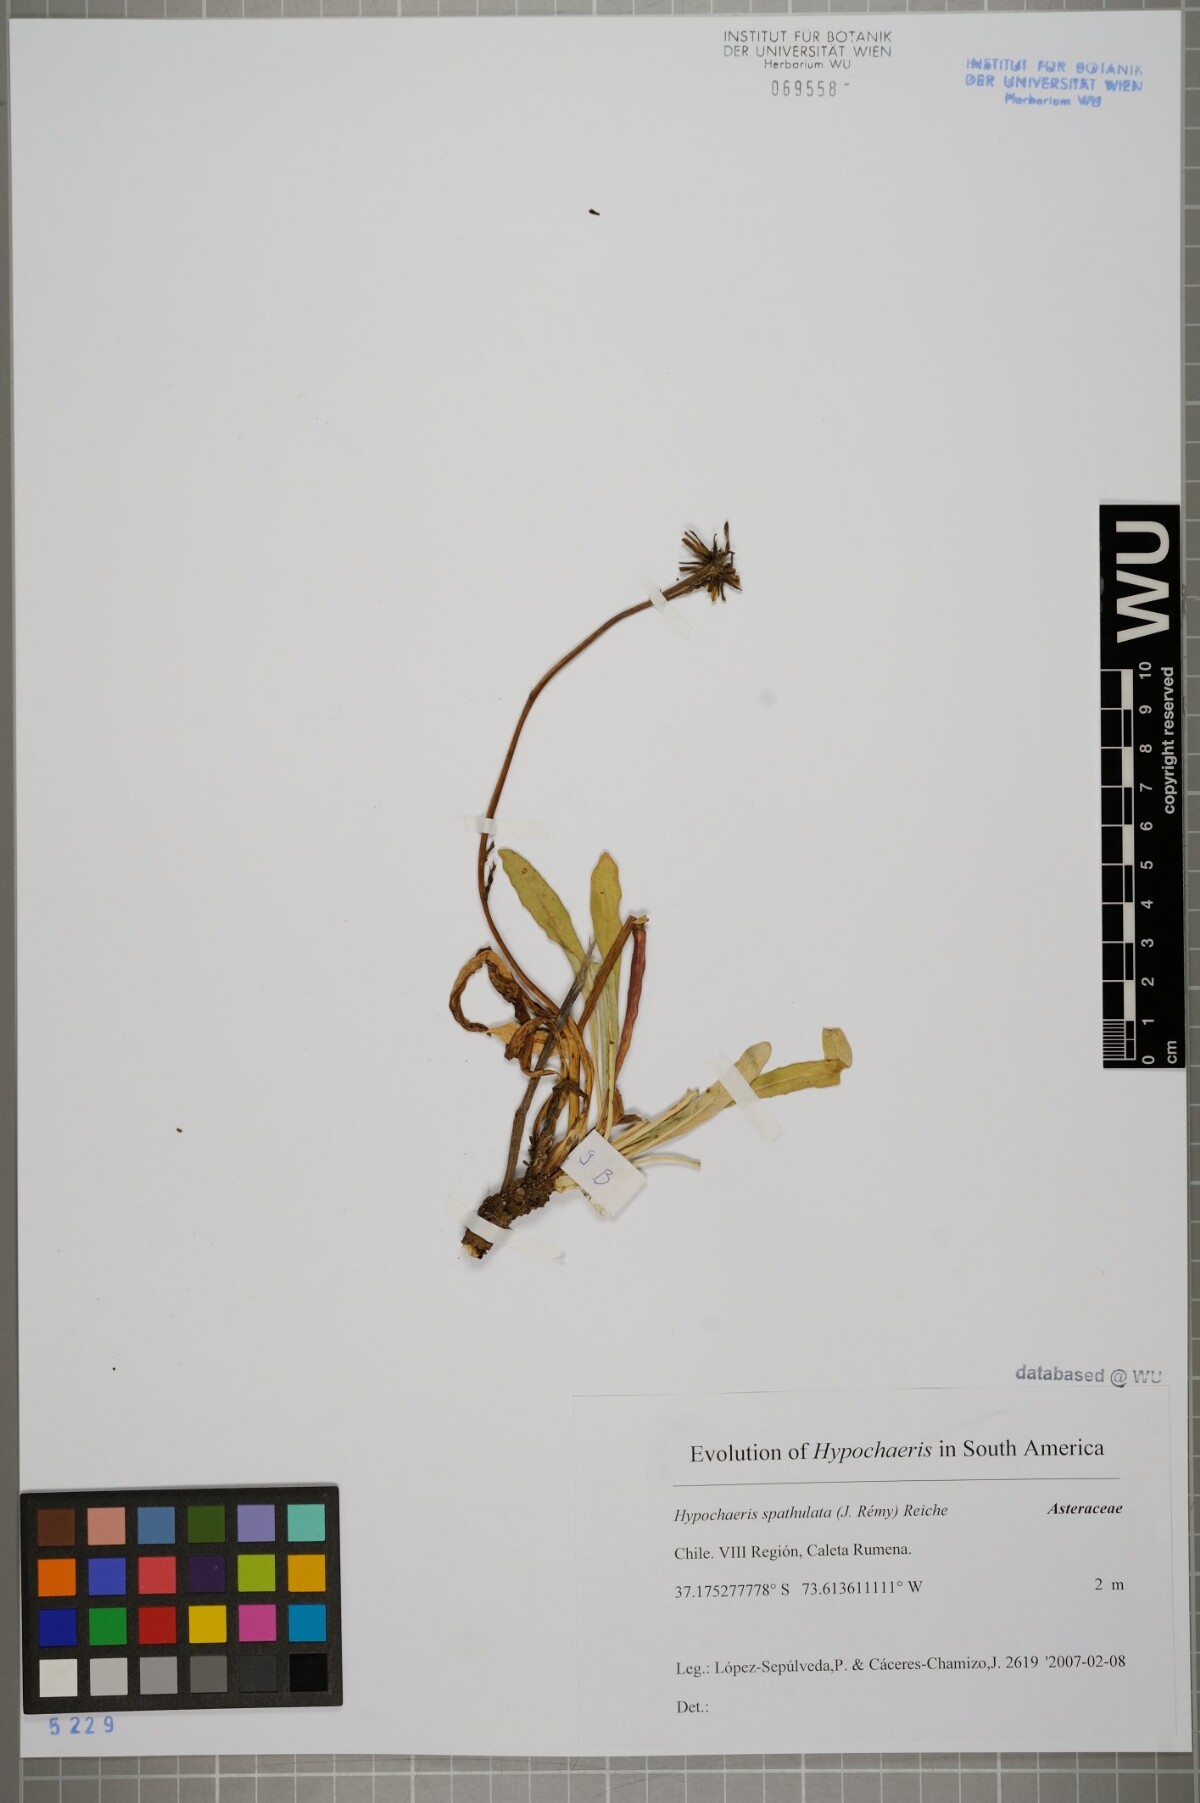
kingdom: Plantae
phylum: Tracheophyta
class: Magnoliopsida
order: Asterales
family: Asteraceae
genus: Hypochaeris
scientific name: Hypochaeris spathulata
